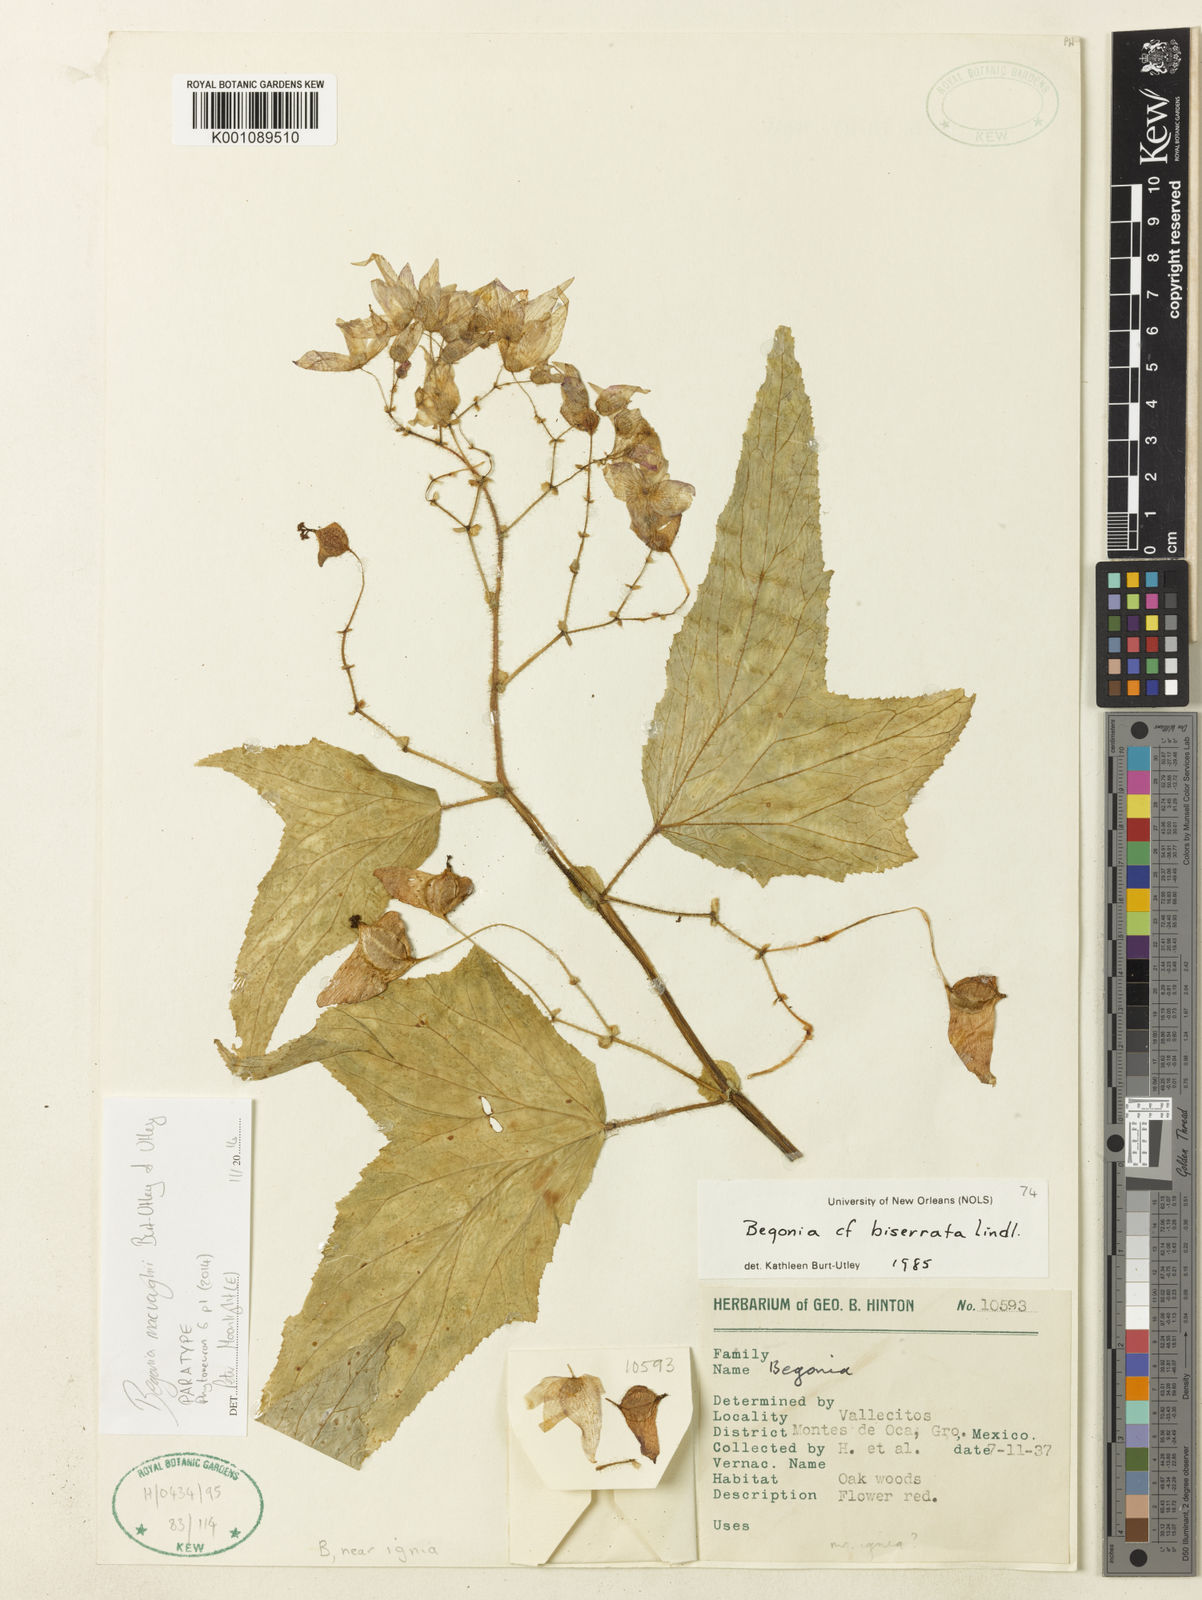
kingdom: Plantae
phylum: Tracheophyta
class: Magnoliopsida
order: Cucurbitales
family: Begoniaceae
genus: Begonia
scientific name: Begonia macvaughii
